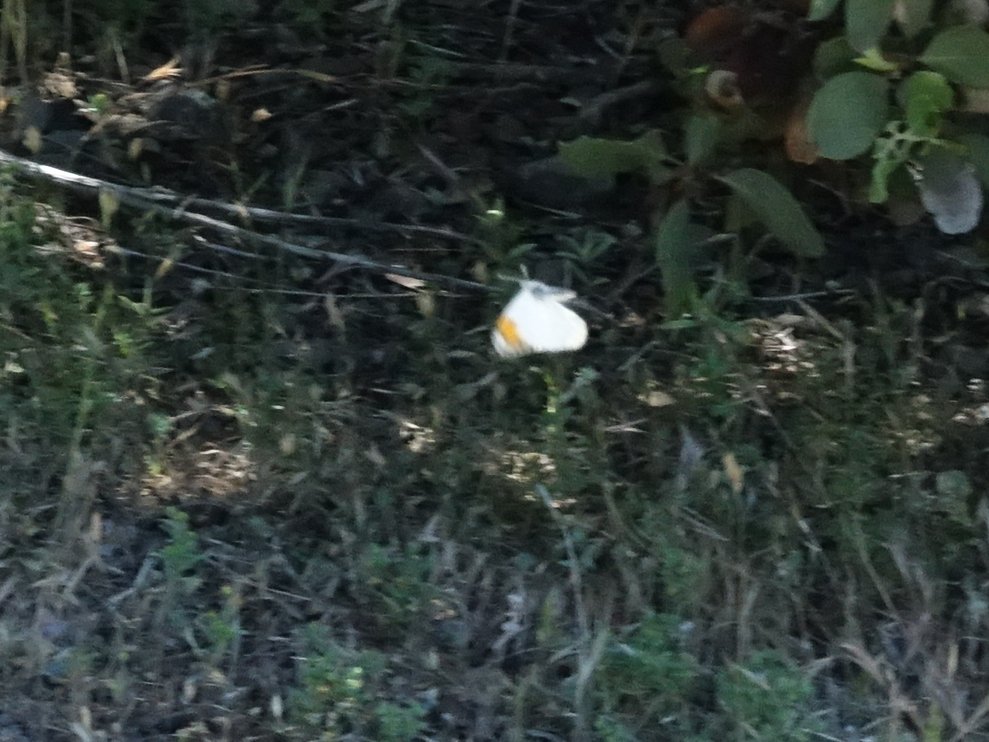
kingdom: Animalia
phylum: Arthropoda
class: Insecta
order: Lepidoptera
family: Pieridae
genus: Anthocharis
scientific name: Anthocharis sara
